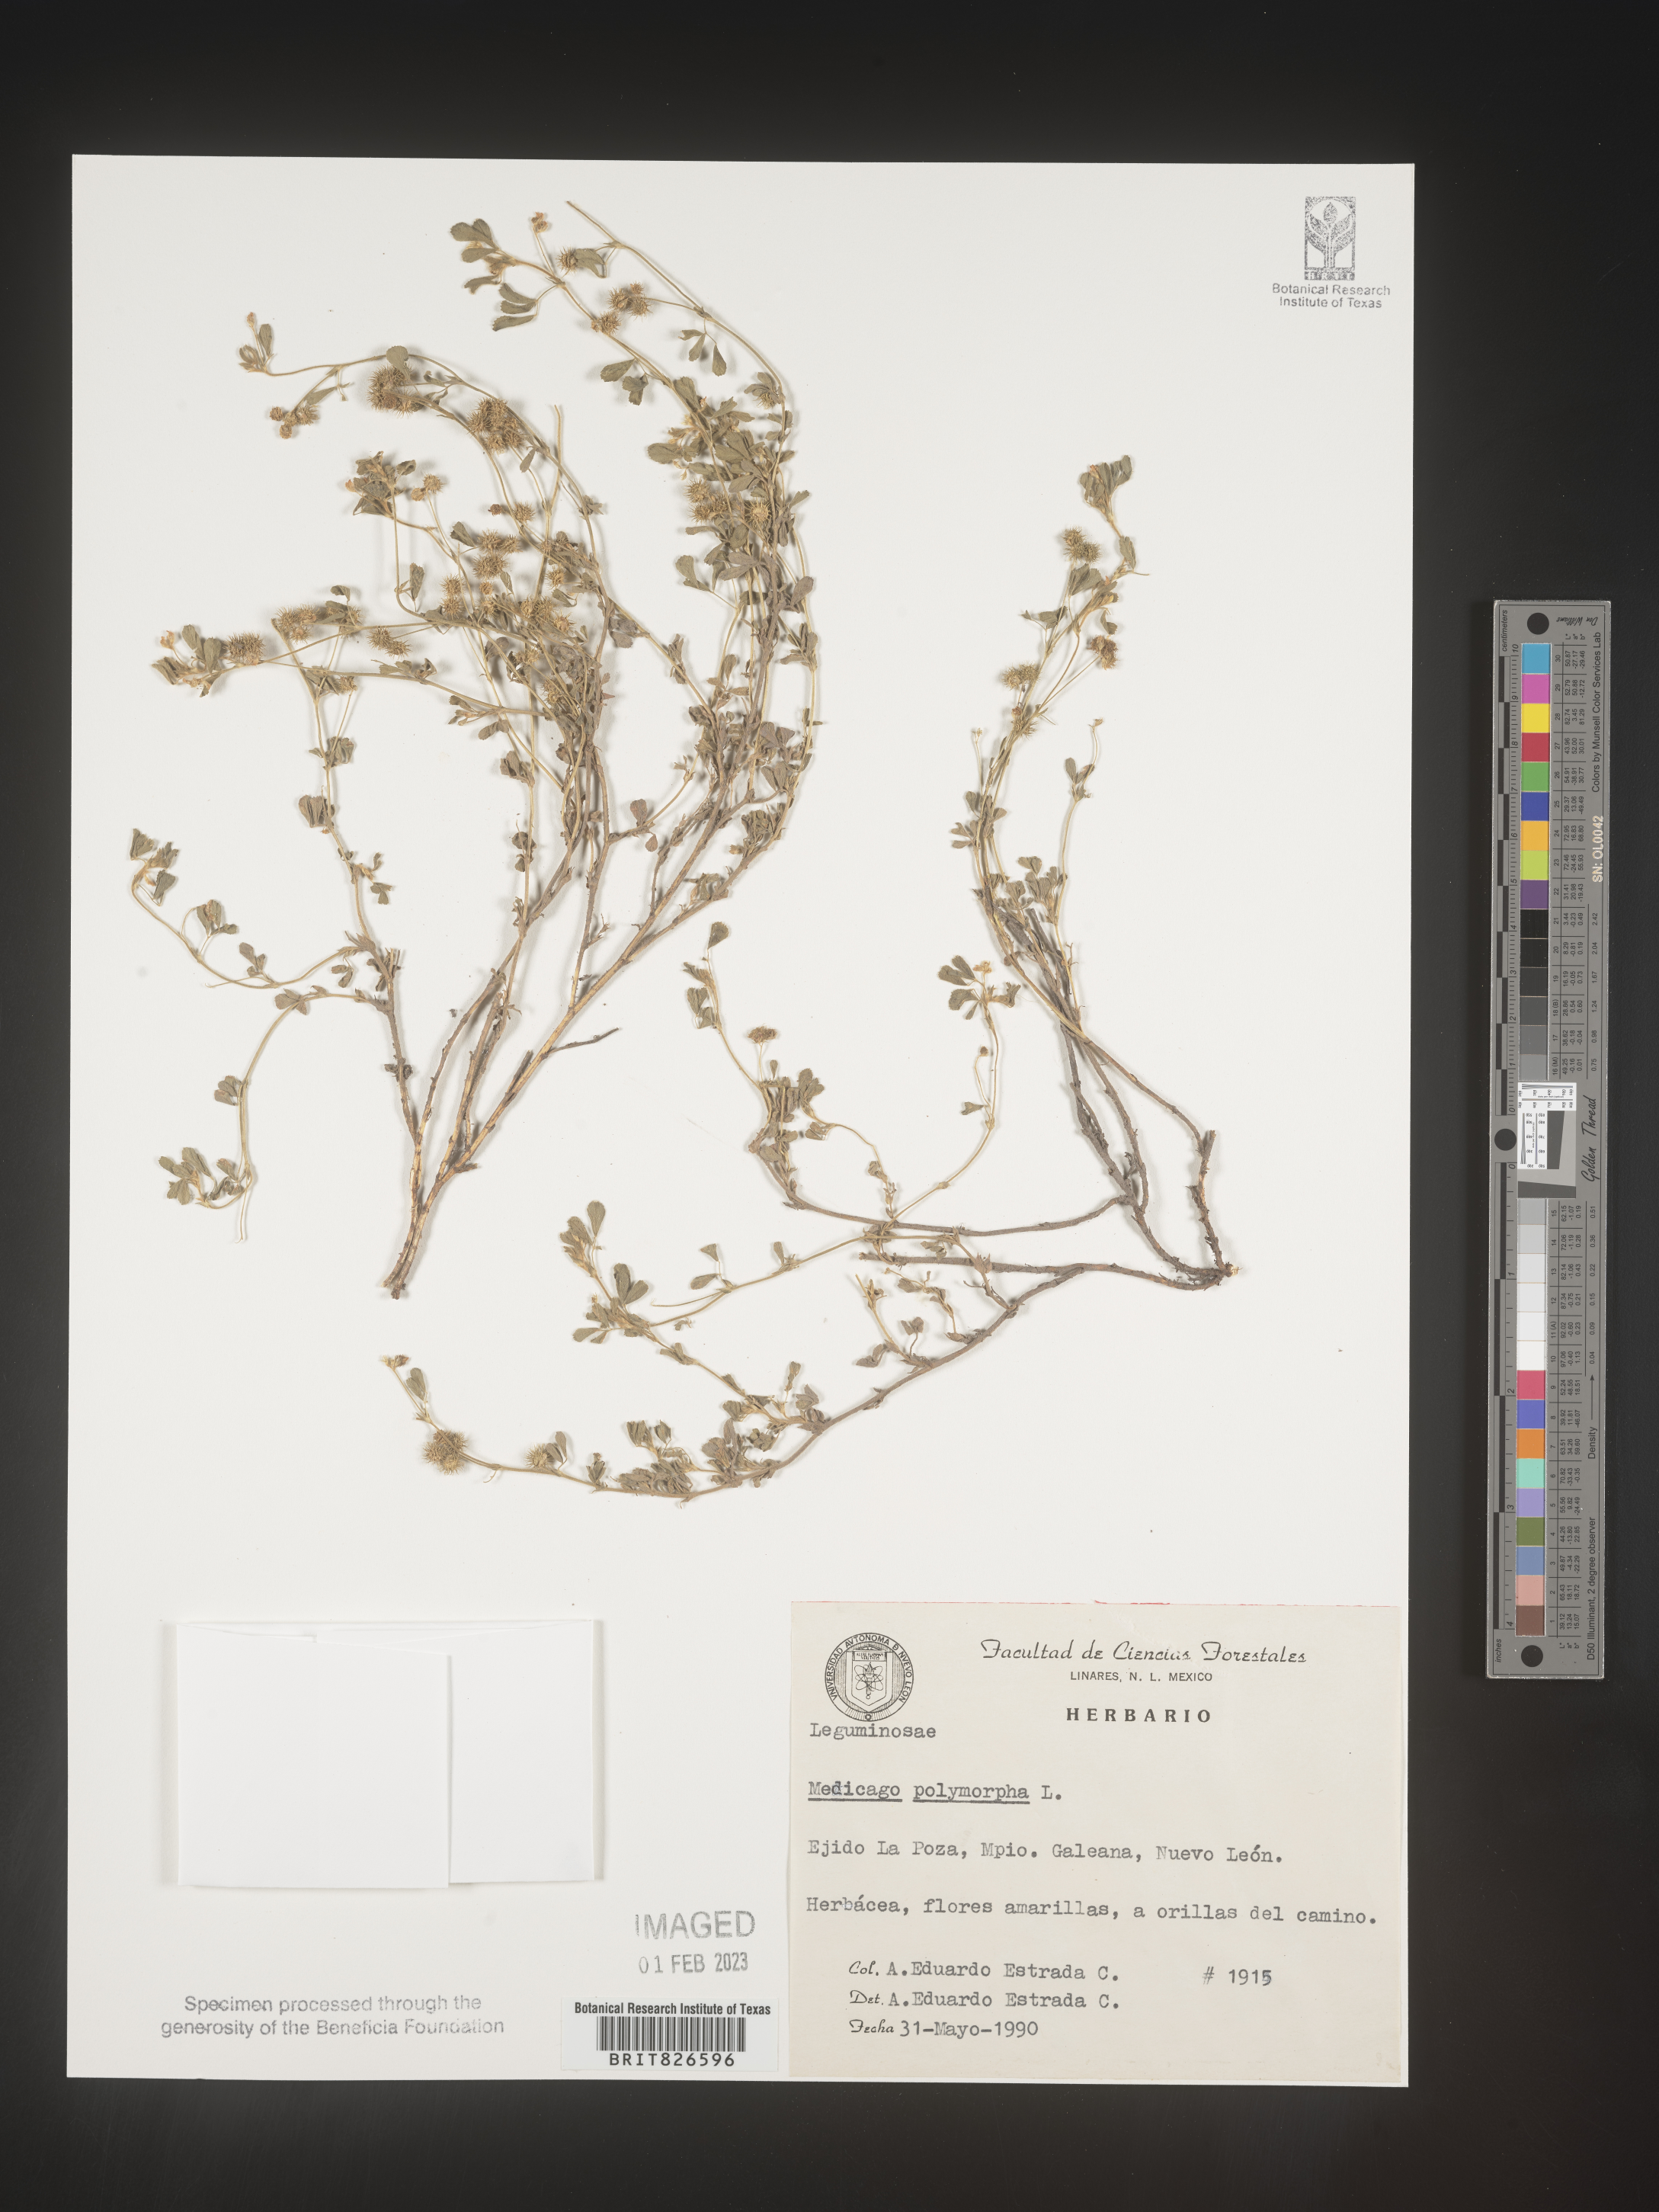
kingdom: Plantae
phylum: Tracheophyta
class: Magnoliopsida
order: Fabales
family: Fabaceae
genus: Medicago
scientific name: Medicago
